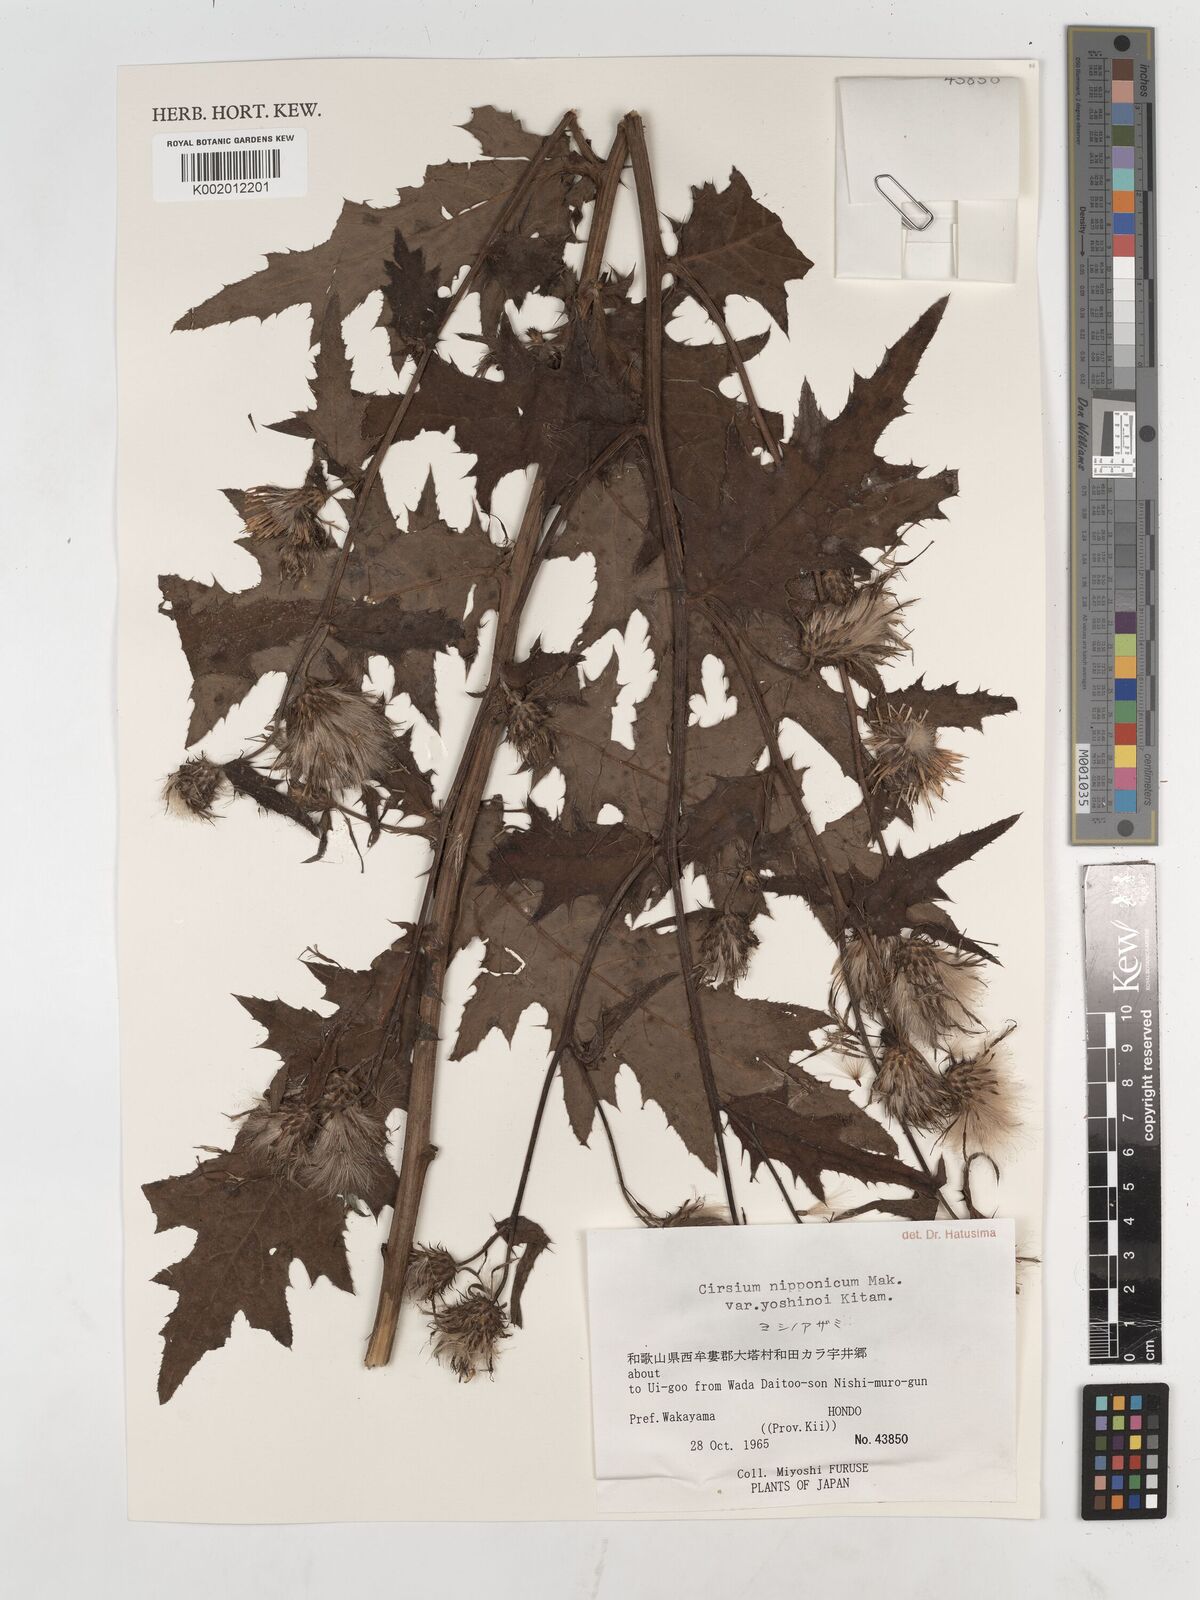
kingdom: Plantae
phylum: Tracheophyta
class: Magnoliopsida
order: Asterales
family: Asteraceae
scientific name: Asteraceae
